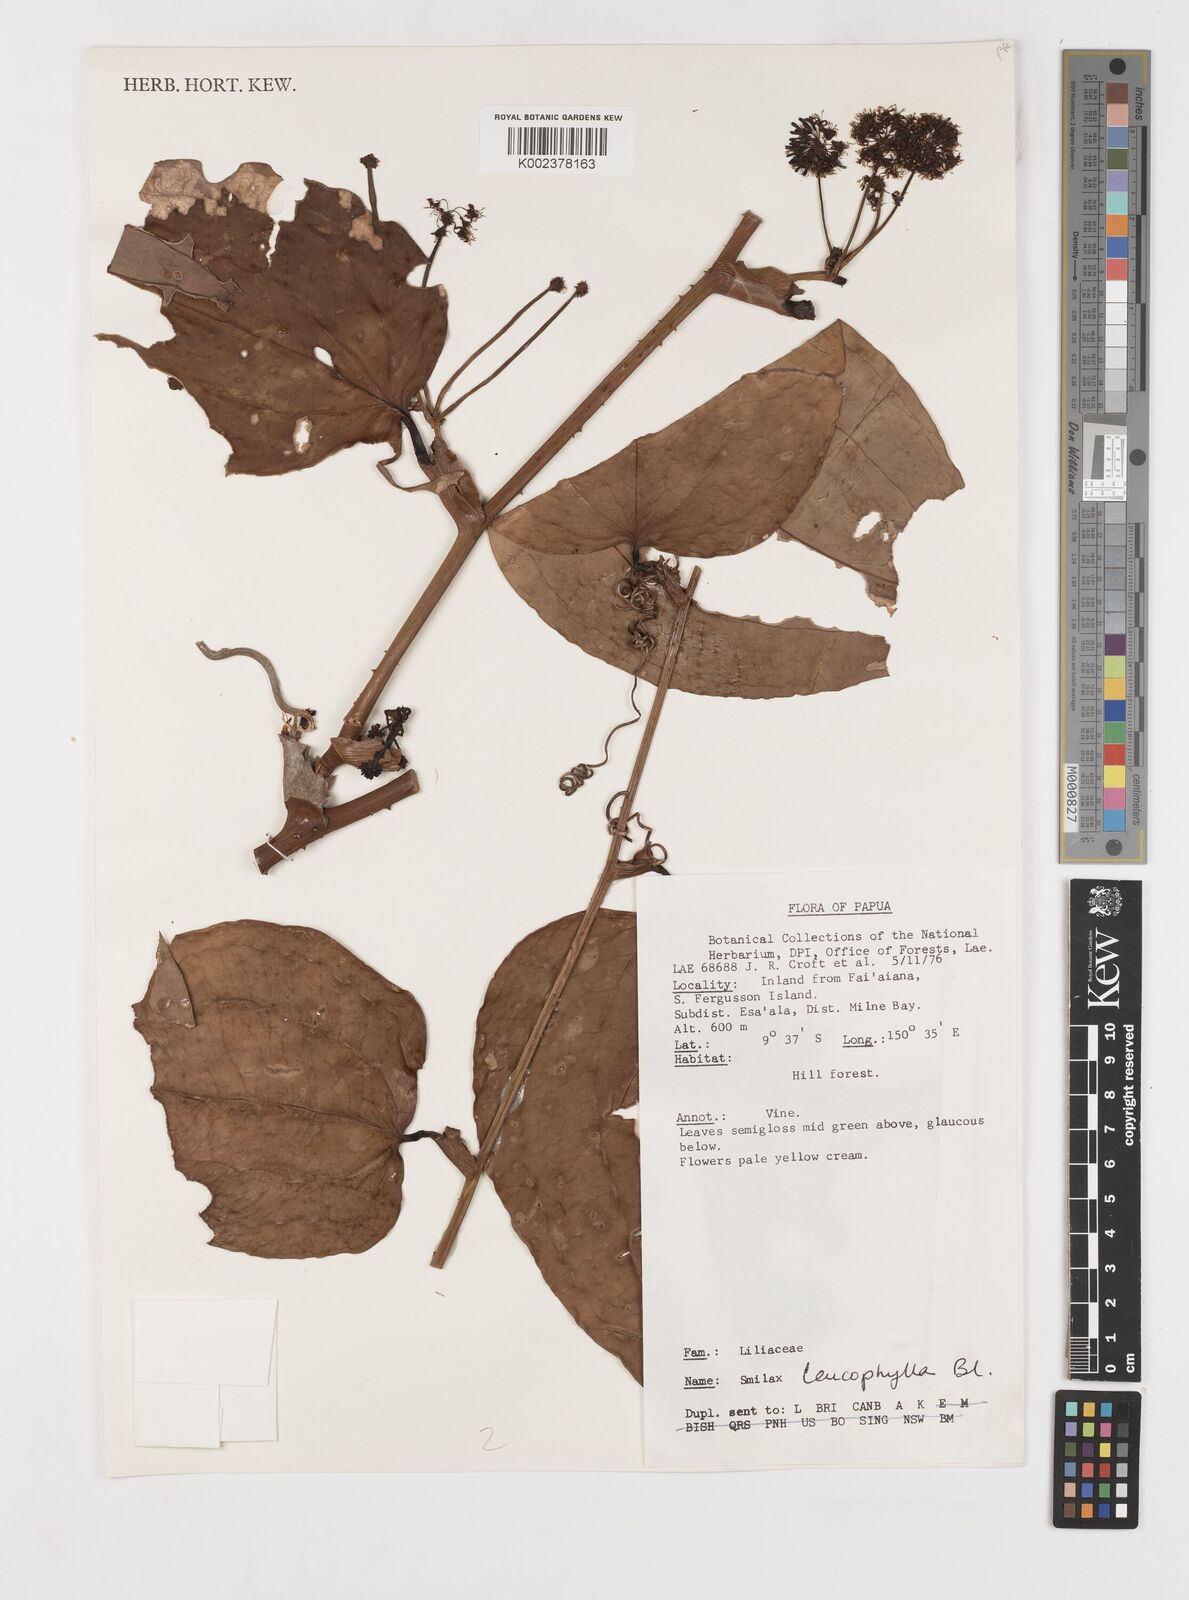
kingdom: Plantae
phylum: Tracheophyta
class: Liliopsida
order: Liliales
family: Smilacaceae
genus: Smilax
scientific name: Smilax leucophylla
